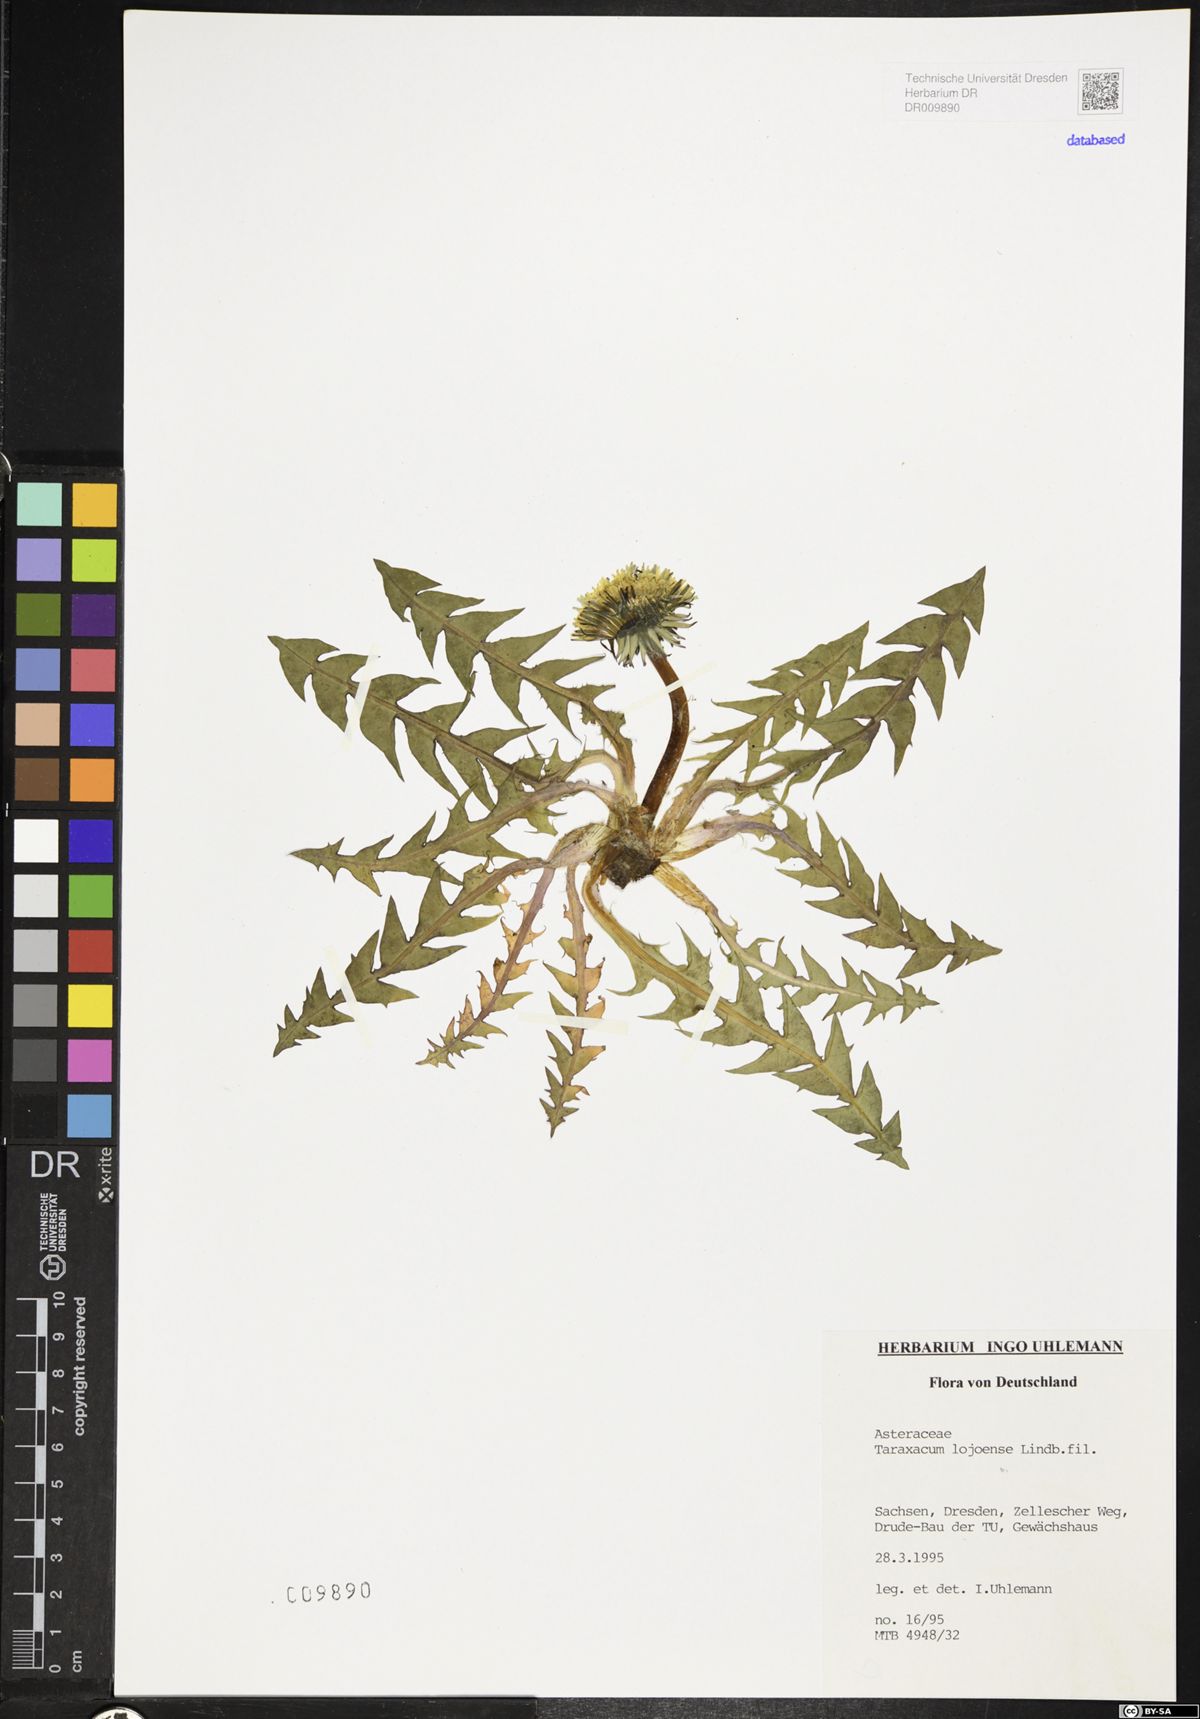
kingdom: Plantae
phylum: Tracheophyta
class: Magnoliopsida
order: Asterales
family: Asteraceae
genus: Taraxacum
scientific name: Taraxacum debrayi
